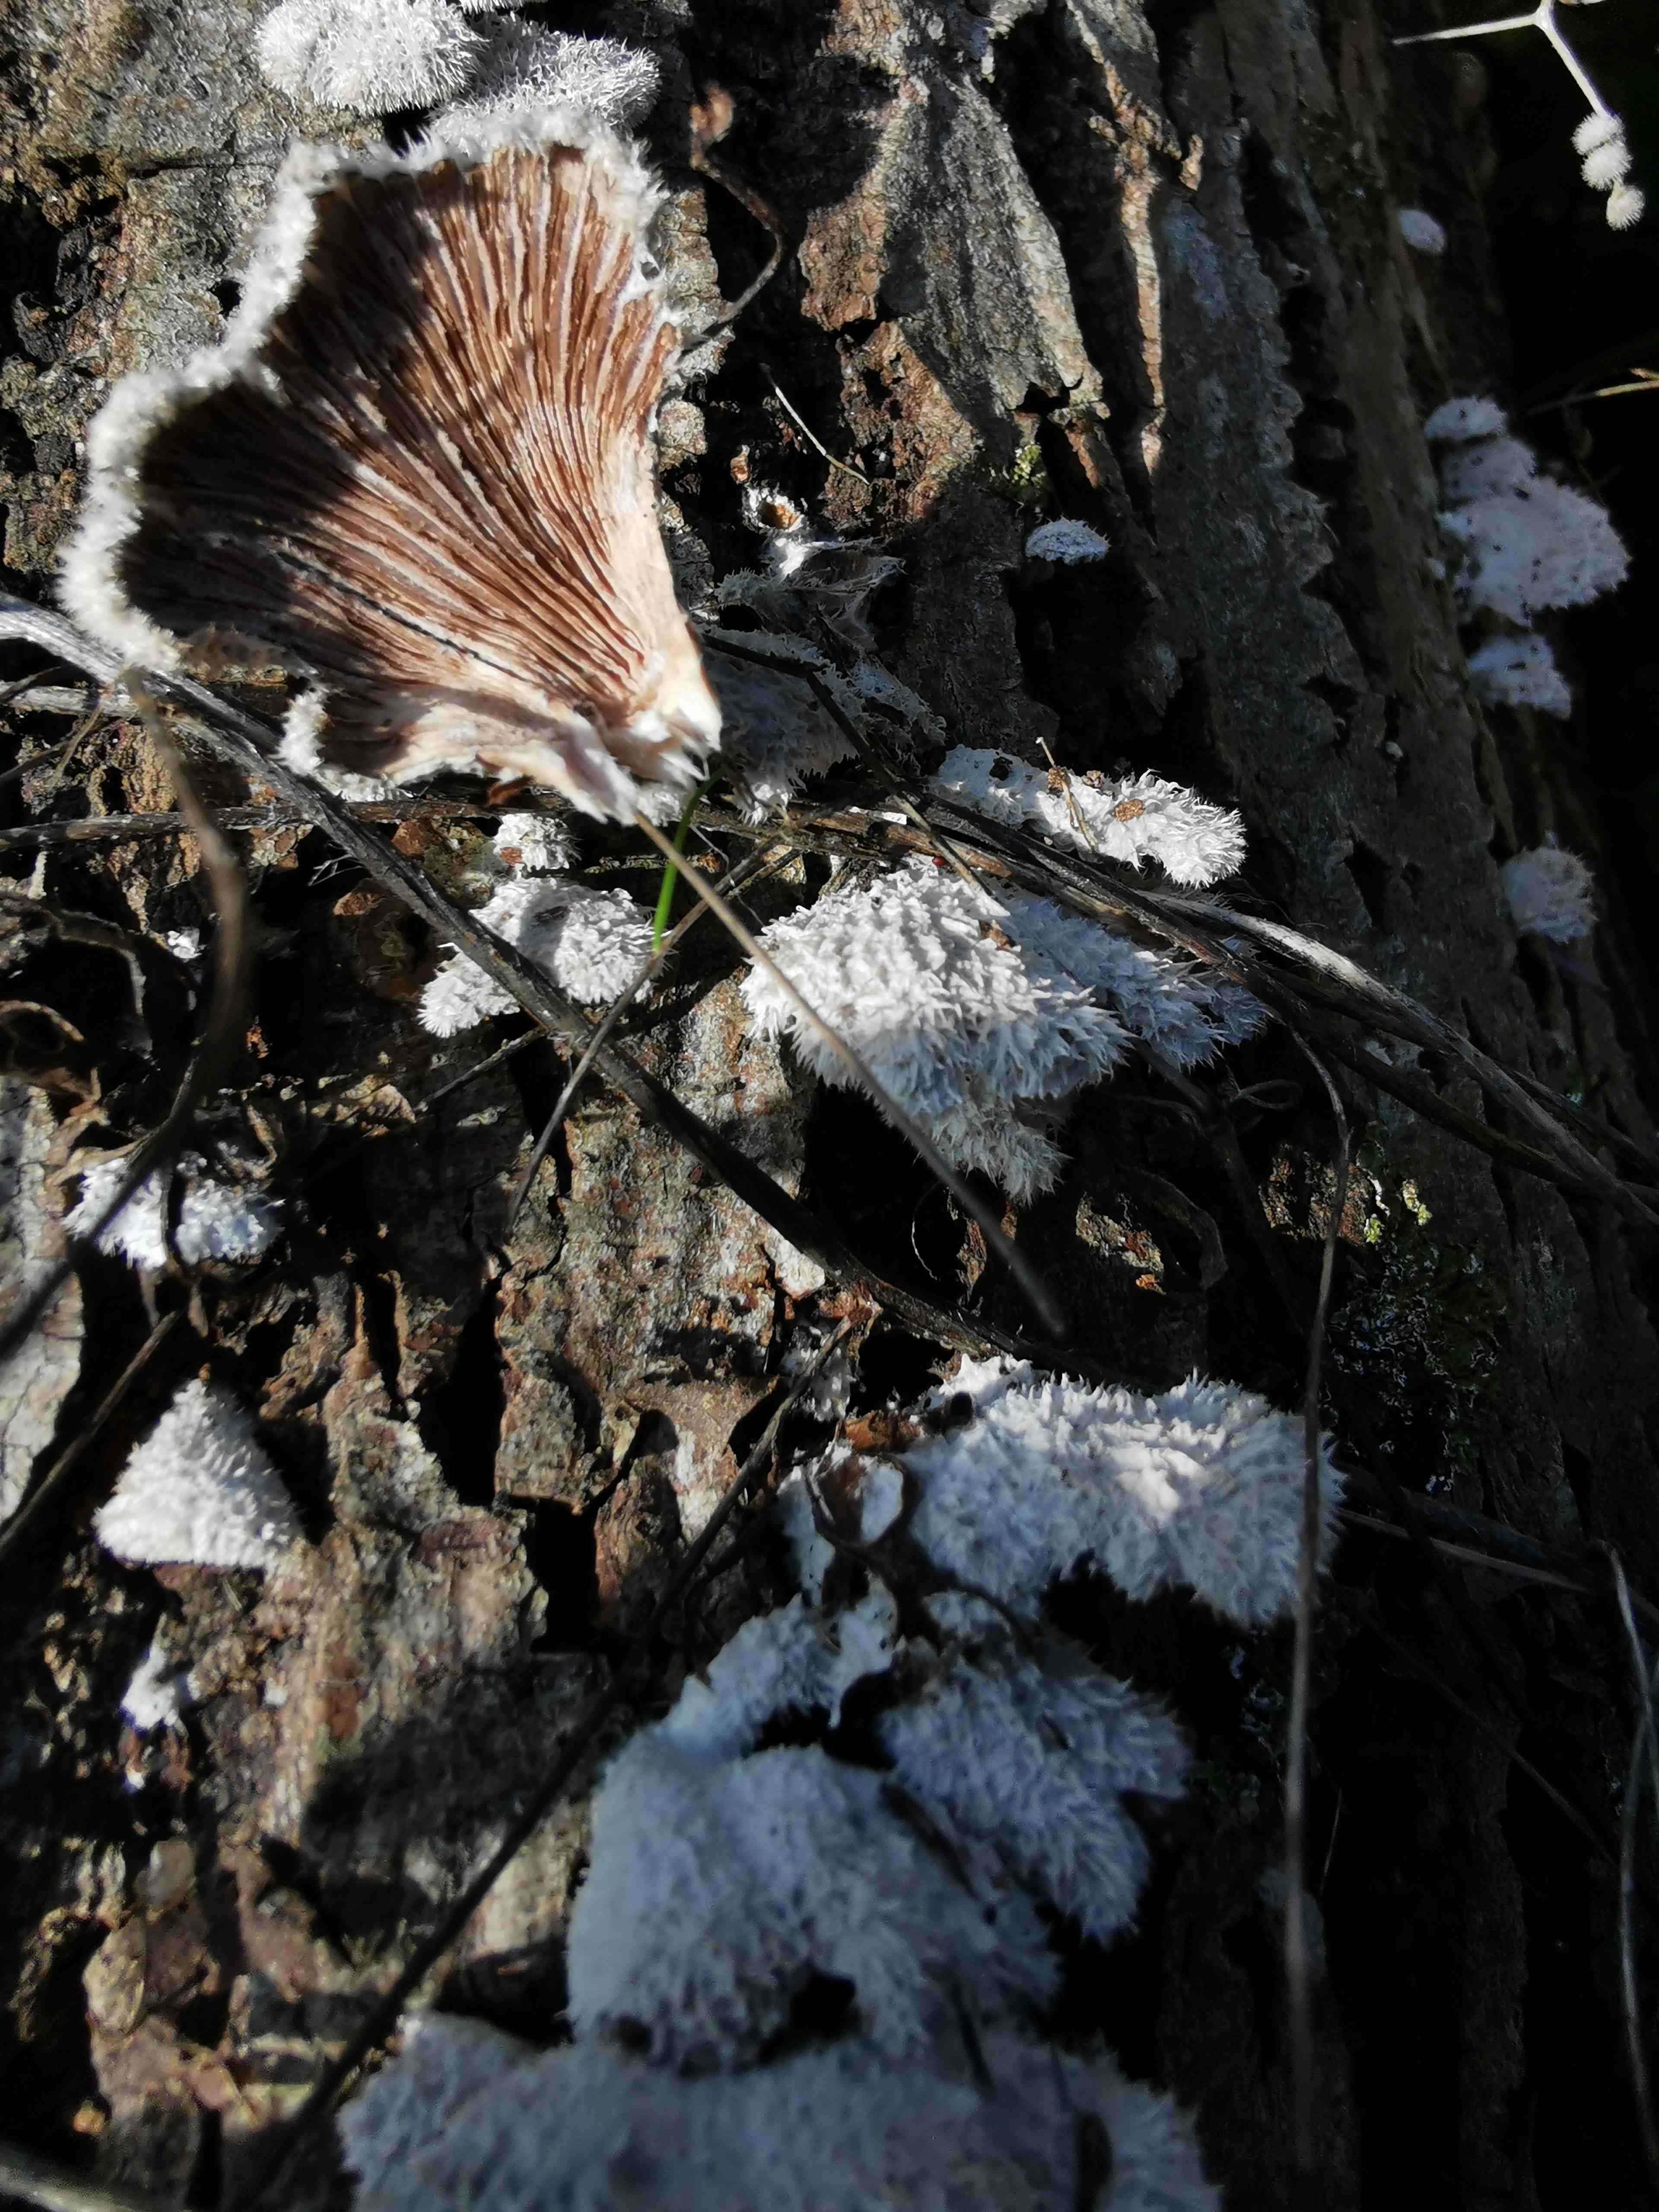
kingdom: Fungi
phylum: Basidiomycota
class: Agaricomycetes
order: Agaricales
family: Schizophyllaceae
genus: Schizophyllum
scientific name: Schizophyllum commune
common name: kløvblad
